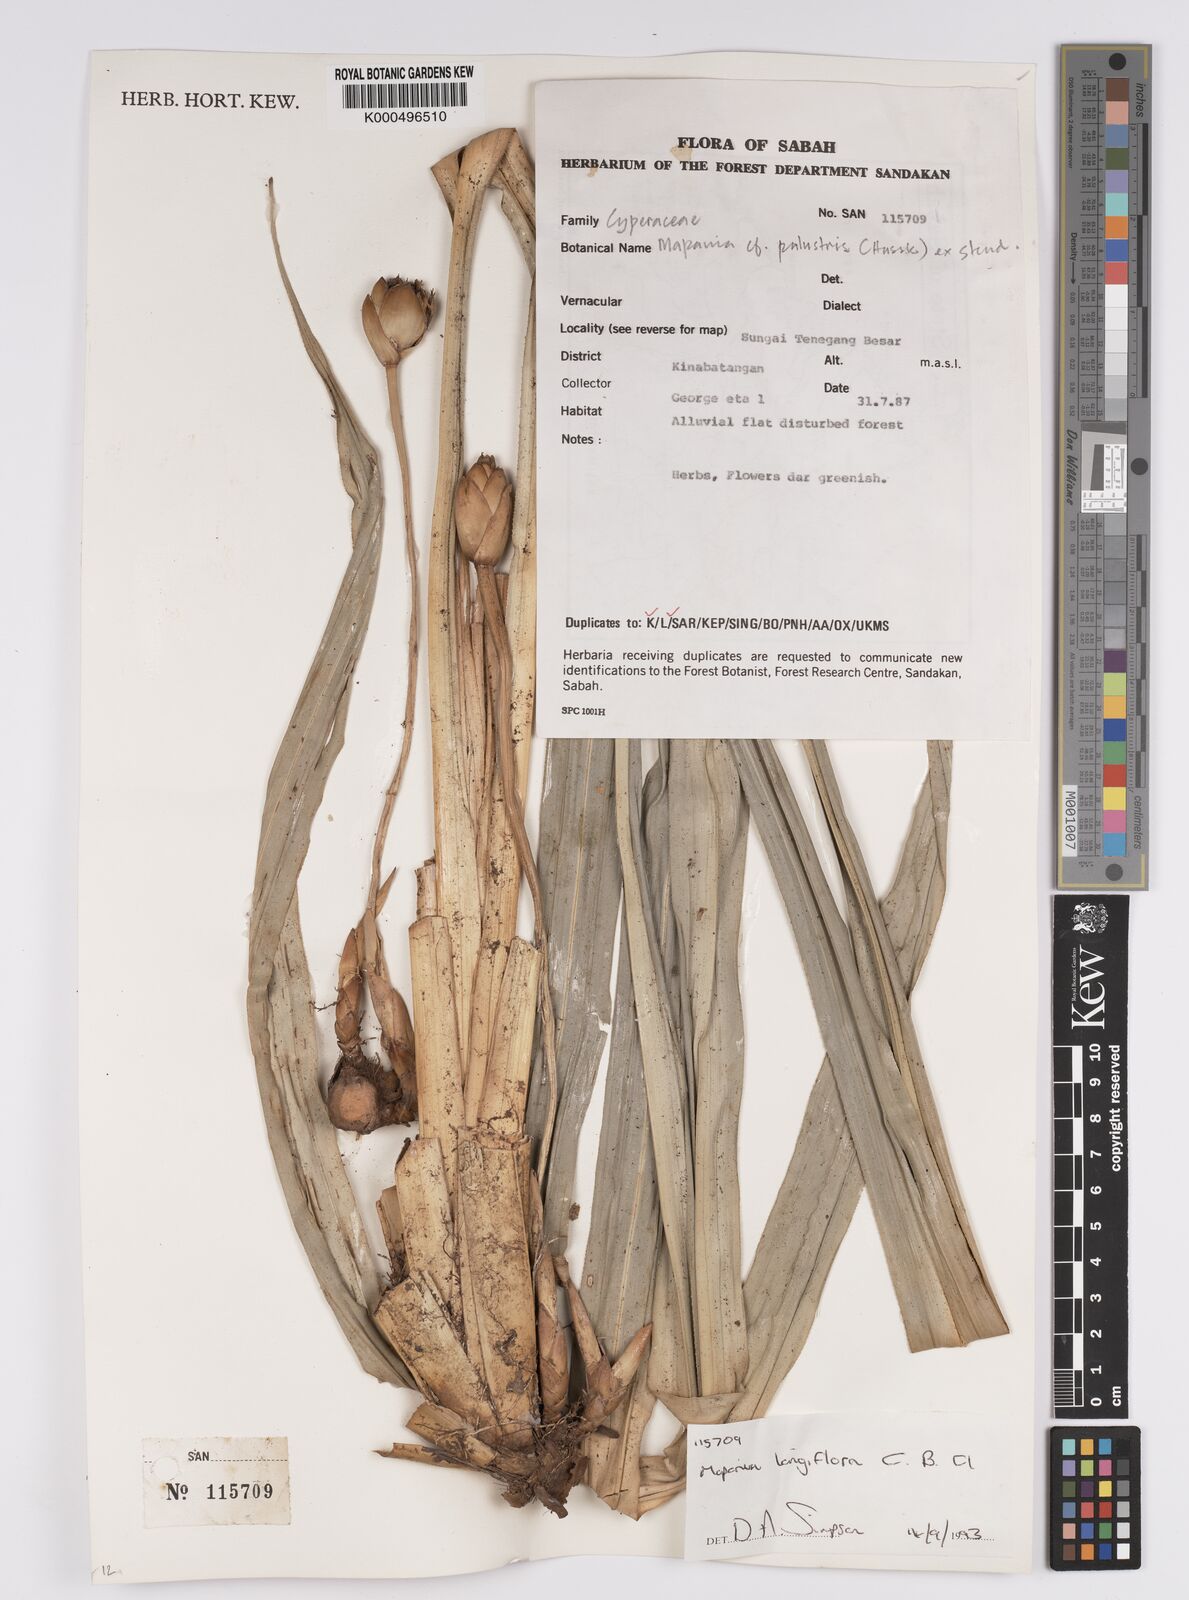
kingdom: Plantae
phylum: Tracheophyta
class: Liliopsida
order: Poales
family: Cyperaceae
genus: Mapania
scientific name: Mapania longiflora
